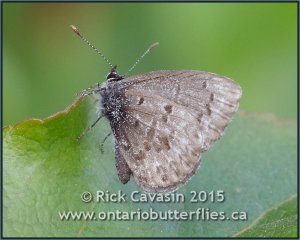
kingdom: Animalia
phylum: Arthropoda
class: Insecta
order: Lepidoptera
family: Lycaenidae
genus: Celastrina
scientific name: Celastrina lucia
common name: Northern Spring Azure
